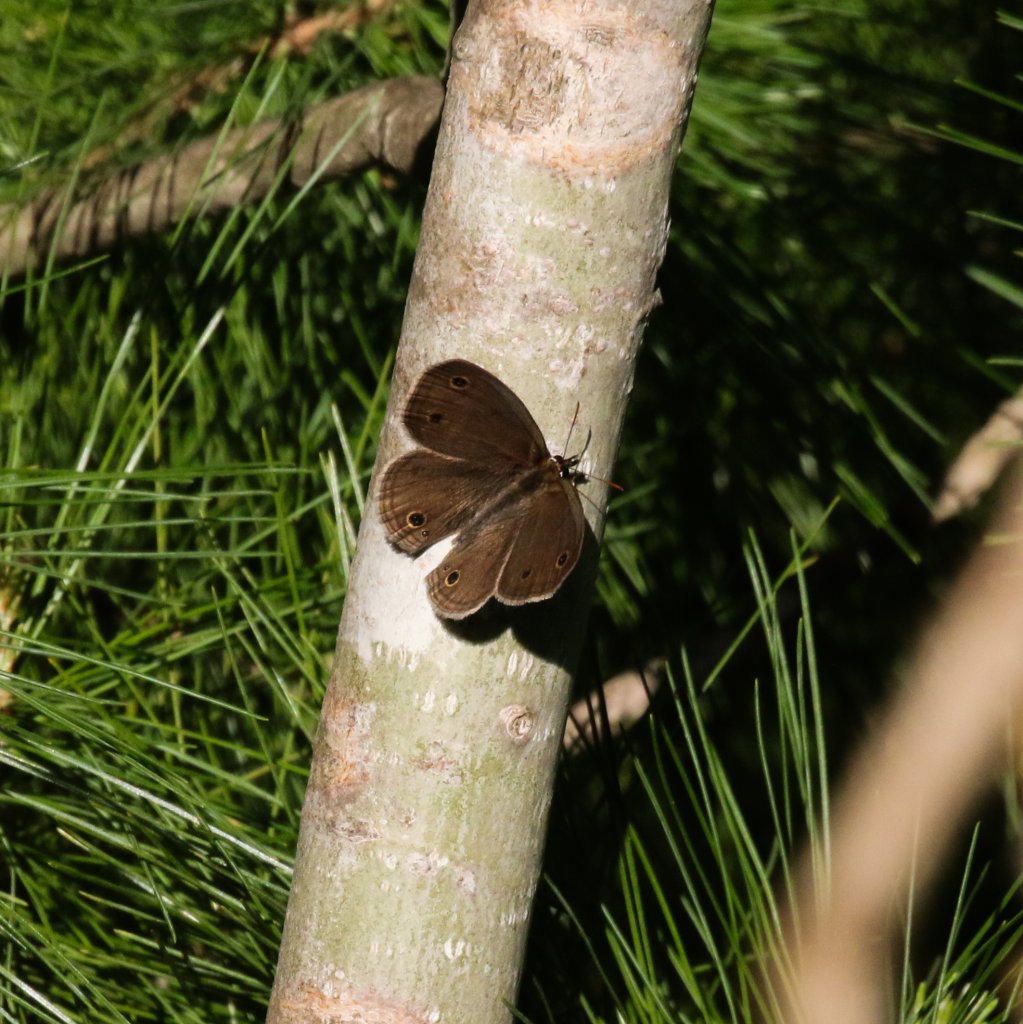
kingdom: Animalia
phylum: Arthropoda
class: Insecta
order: Lepidoptera
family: Nymphalidae
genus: Euptychia
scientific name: Euptychia cymela
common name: Little Wood Satyr
